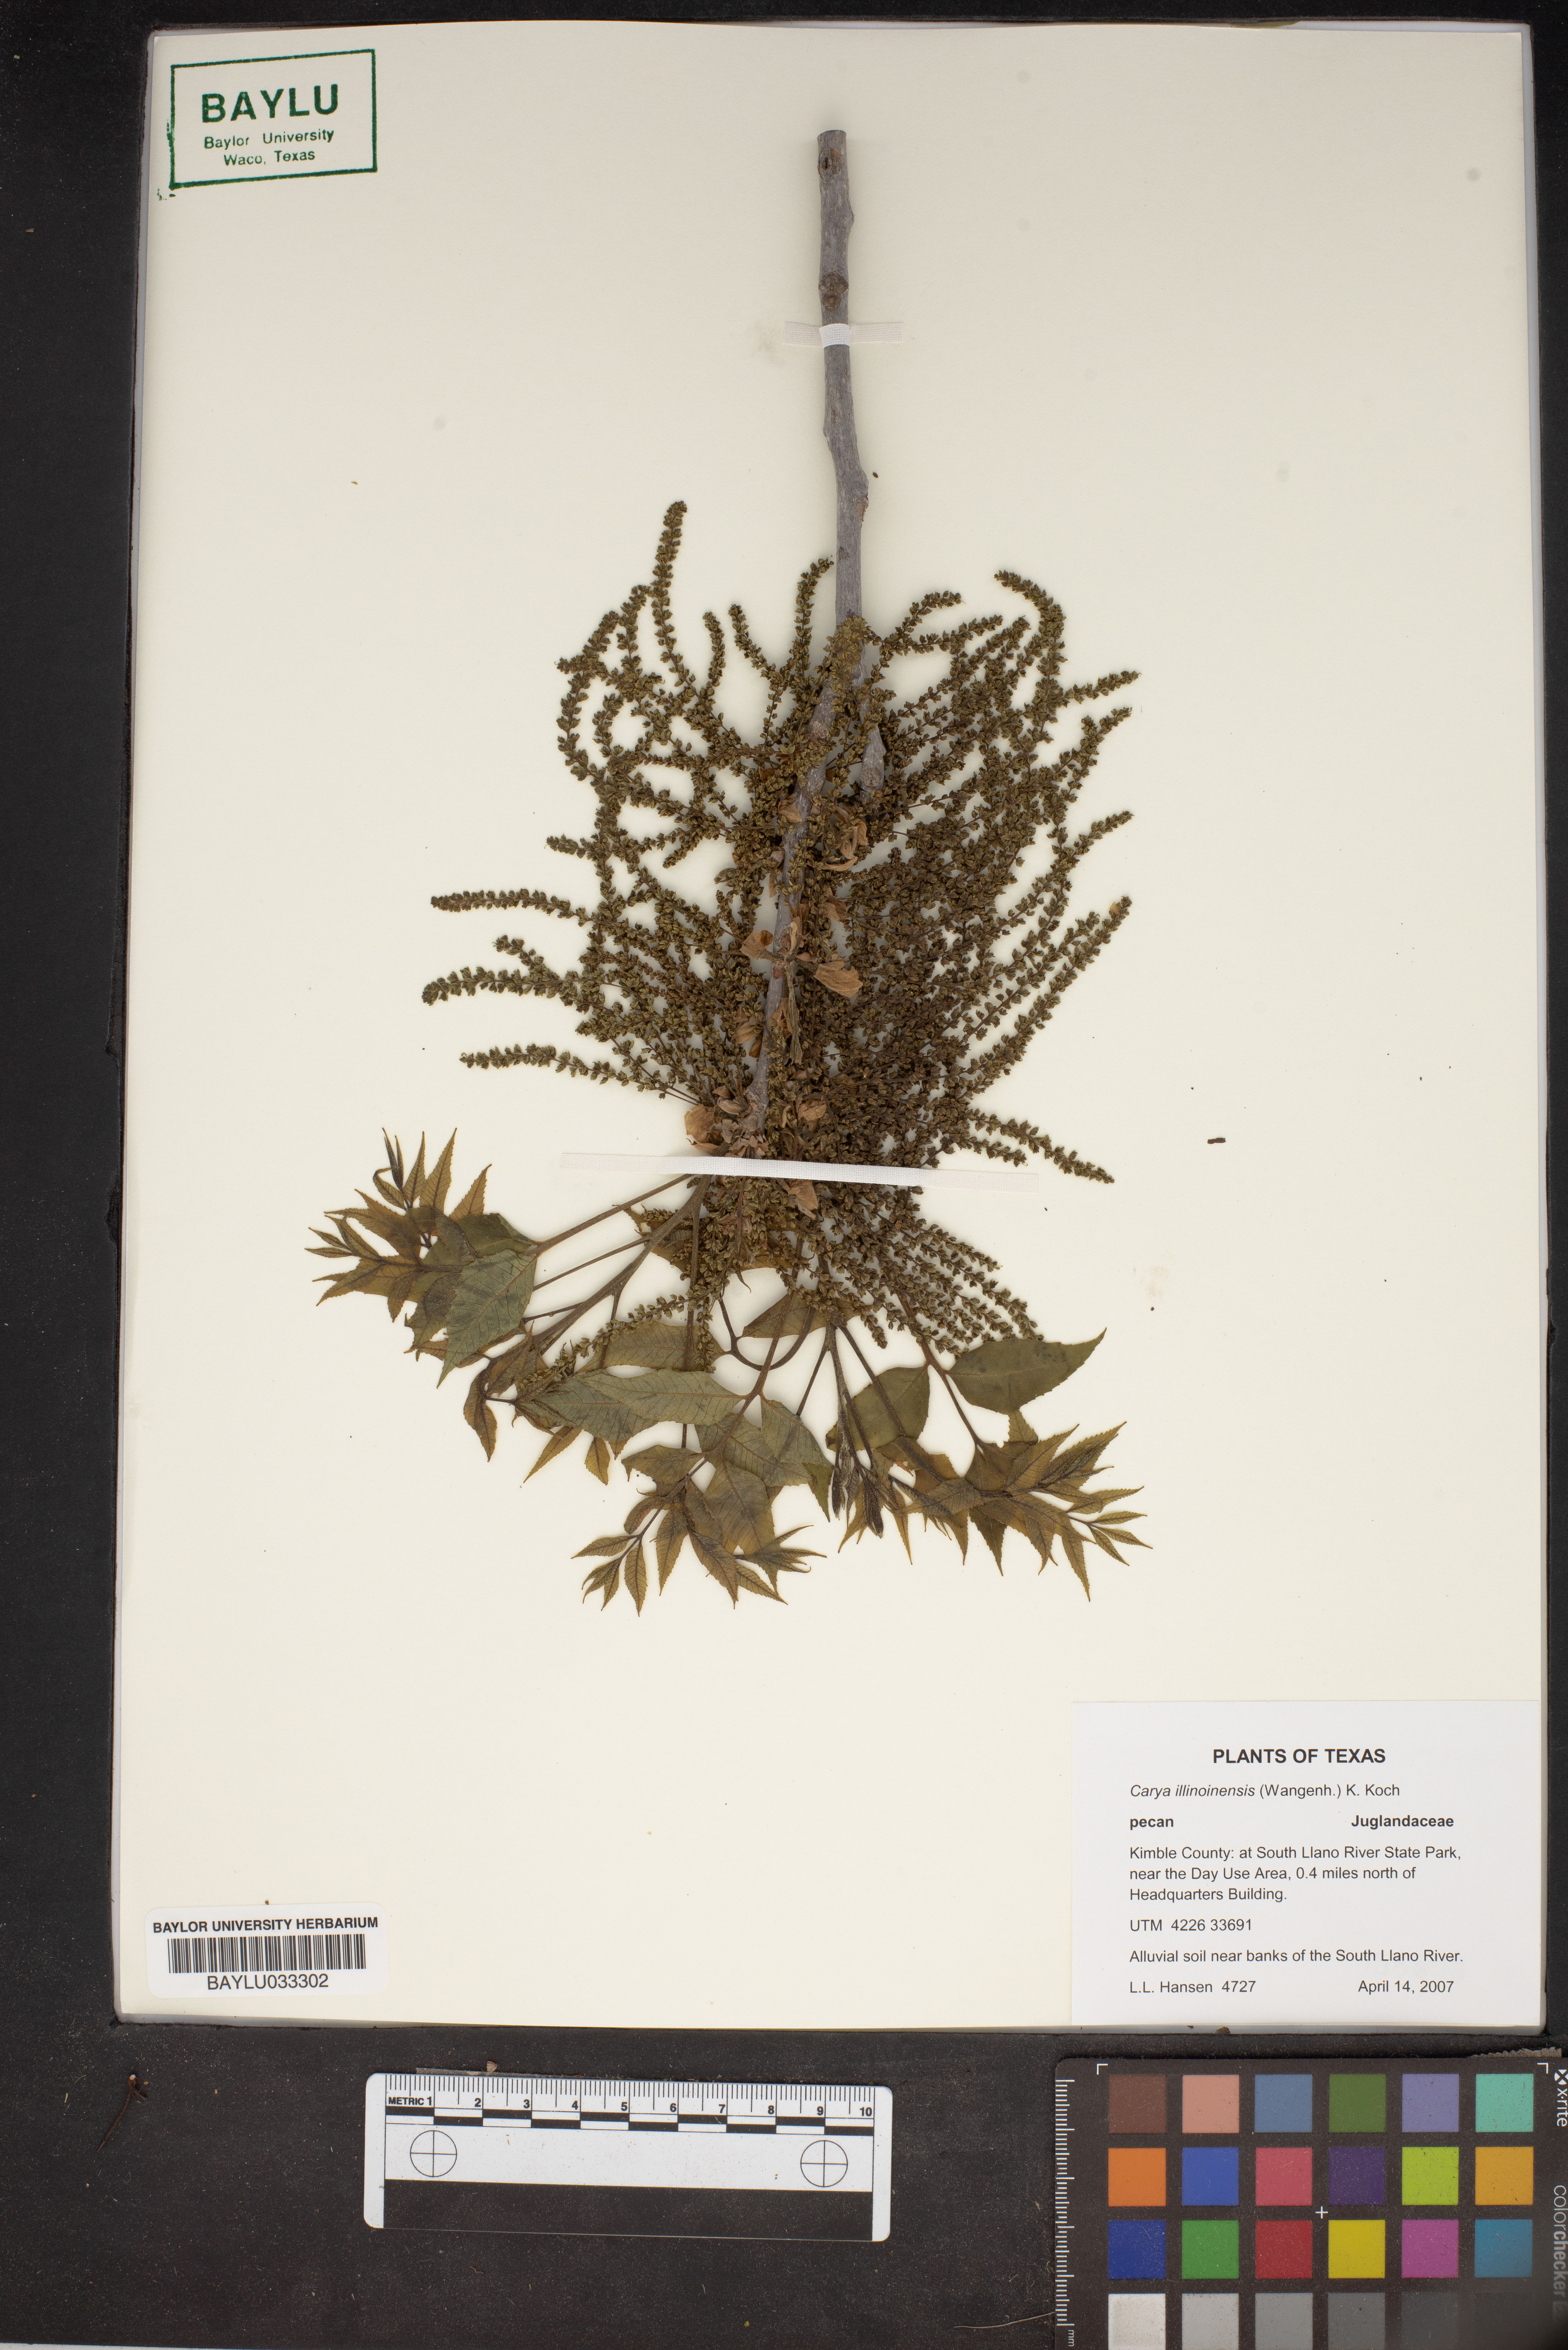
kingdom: Plantae
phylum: Tracheophyta
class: Magnoliopsida
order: Fagales
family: Juglandaceae
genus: Carya
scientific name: Carya illinoinensis
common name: Pecan
